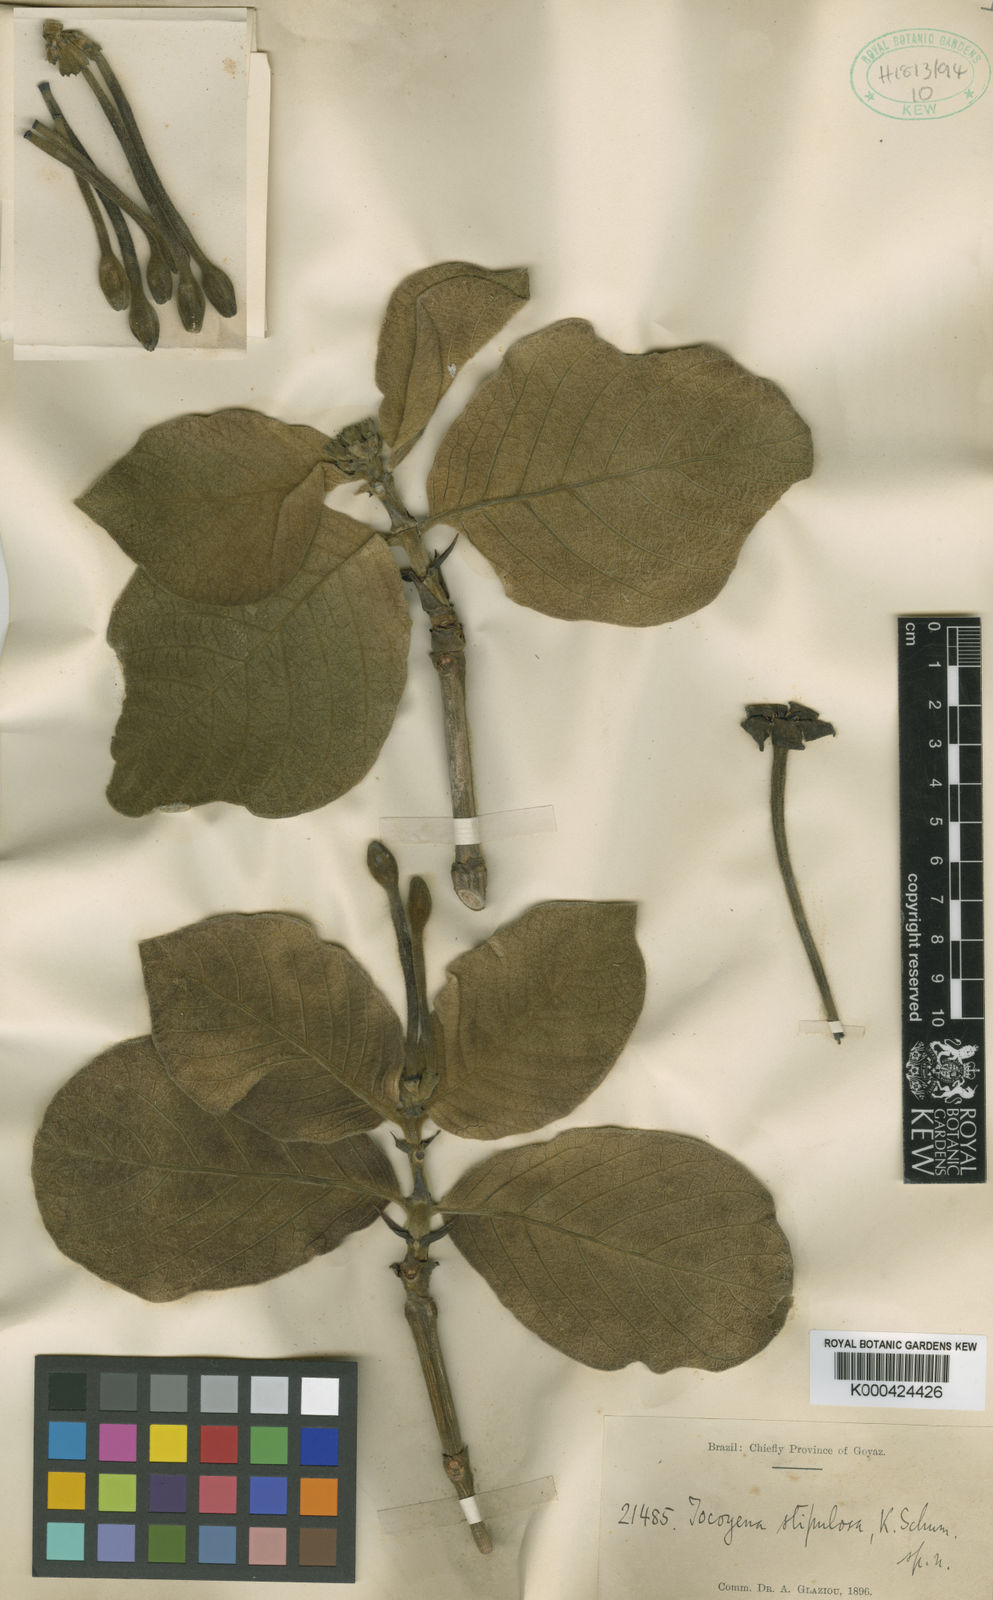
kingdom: Plantae
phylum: Tracheophyta
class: Magnoliopsida
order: Gentianales
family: Rubiaceae
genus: Tocoyena
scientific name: Tocoyena formosa
